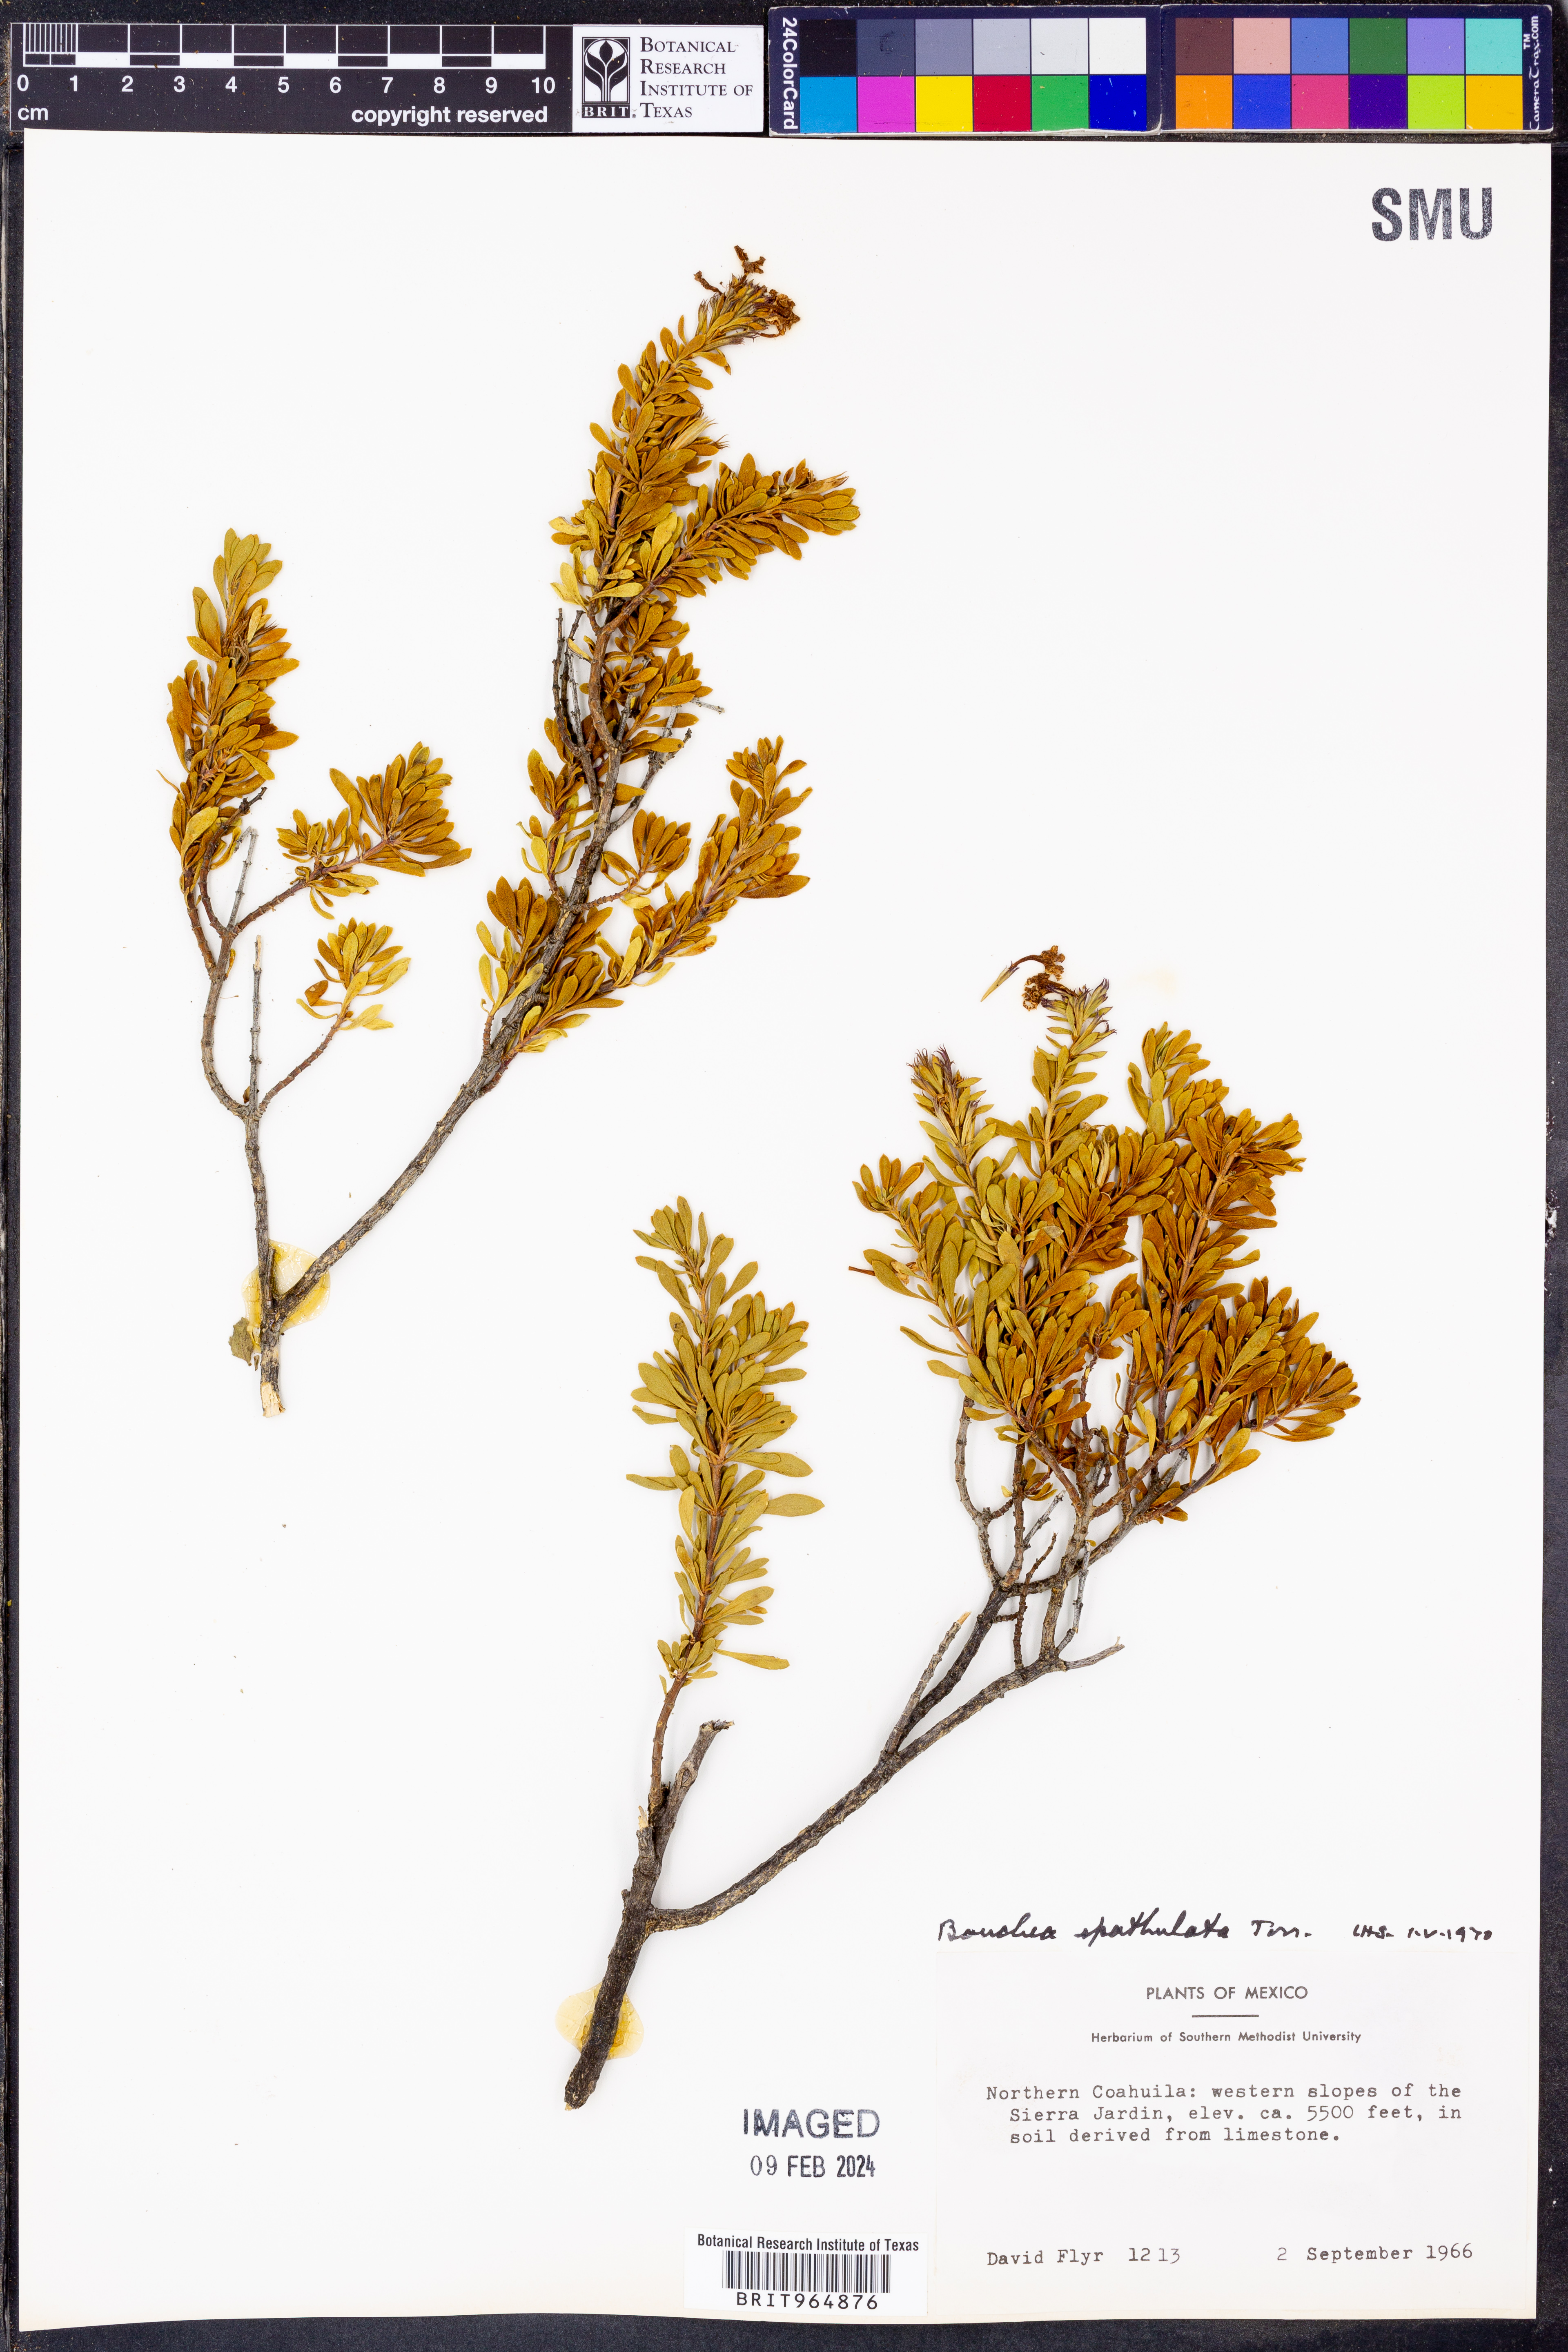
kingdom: Plantae
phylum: Tracheophyta
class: Magnoliopsida
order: Lamiales
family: Verbenaceae
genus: Bouchea
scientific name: Bouchea
